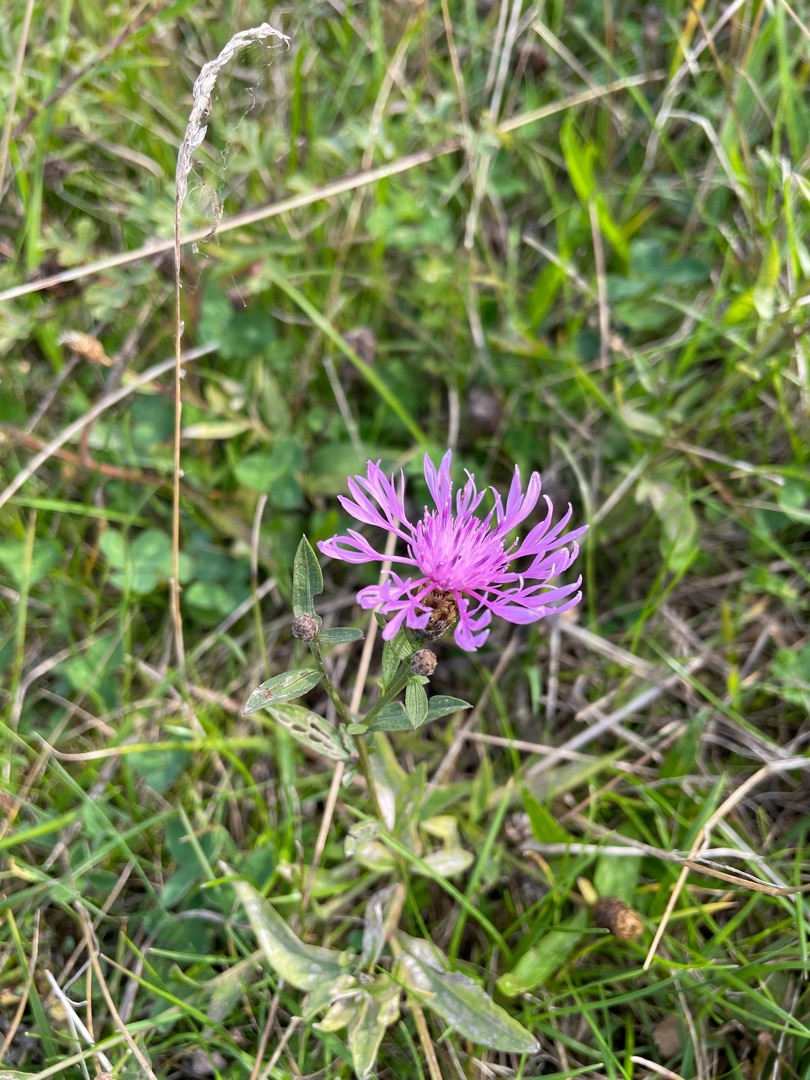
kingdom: Plantae
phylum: Tracheophyta
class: Magnoliopsida
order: Asterales
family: Asteraceae
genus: Centaurea
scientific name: Centaurea jacea
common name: Almindelig knopurt
